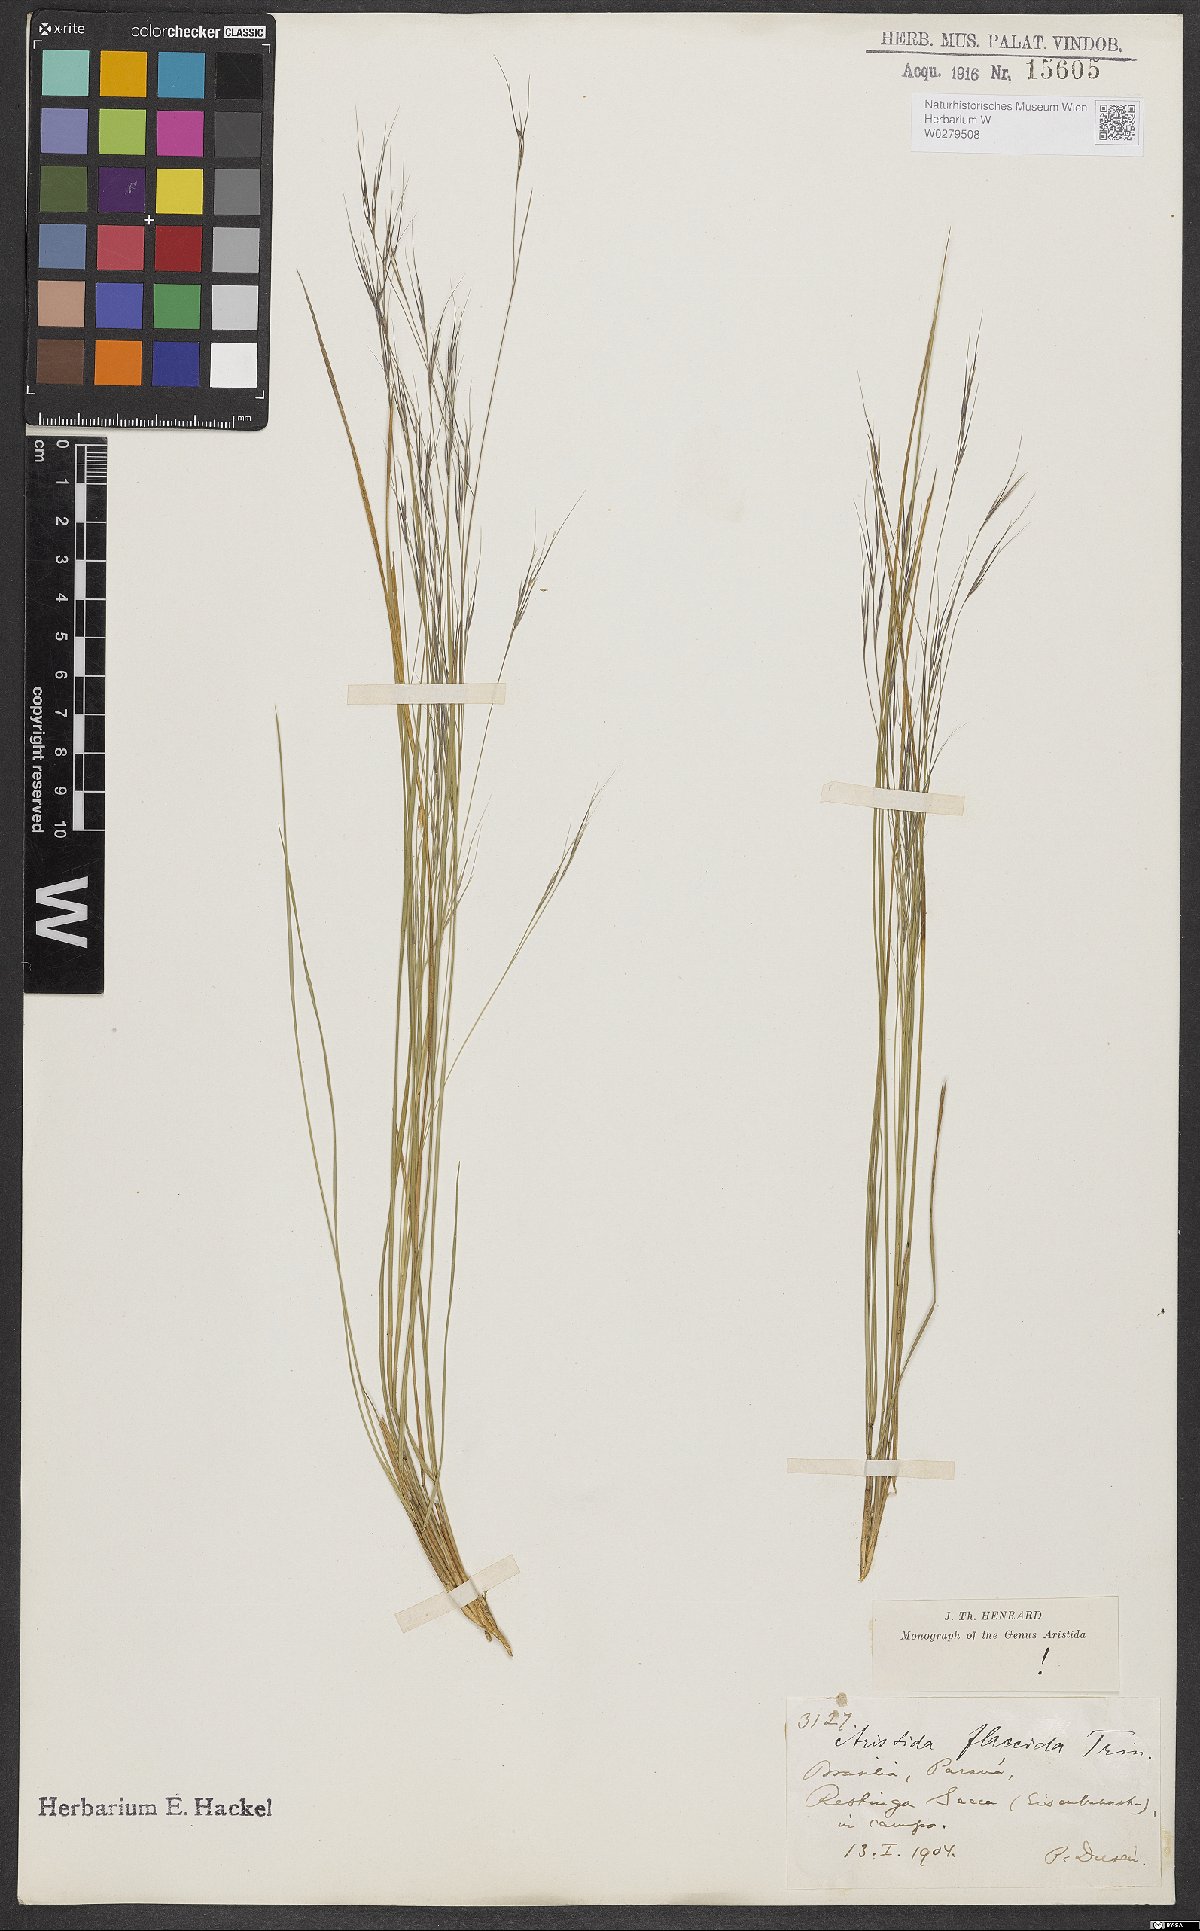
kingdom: Plantae
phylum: Tracheophyta
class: Liliopsida
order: Poales
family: Poaceae
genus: Aristida
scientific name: Aristida flaccida
